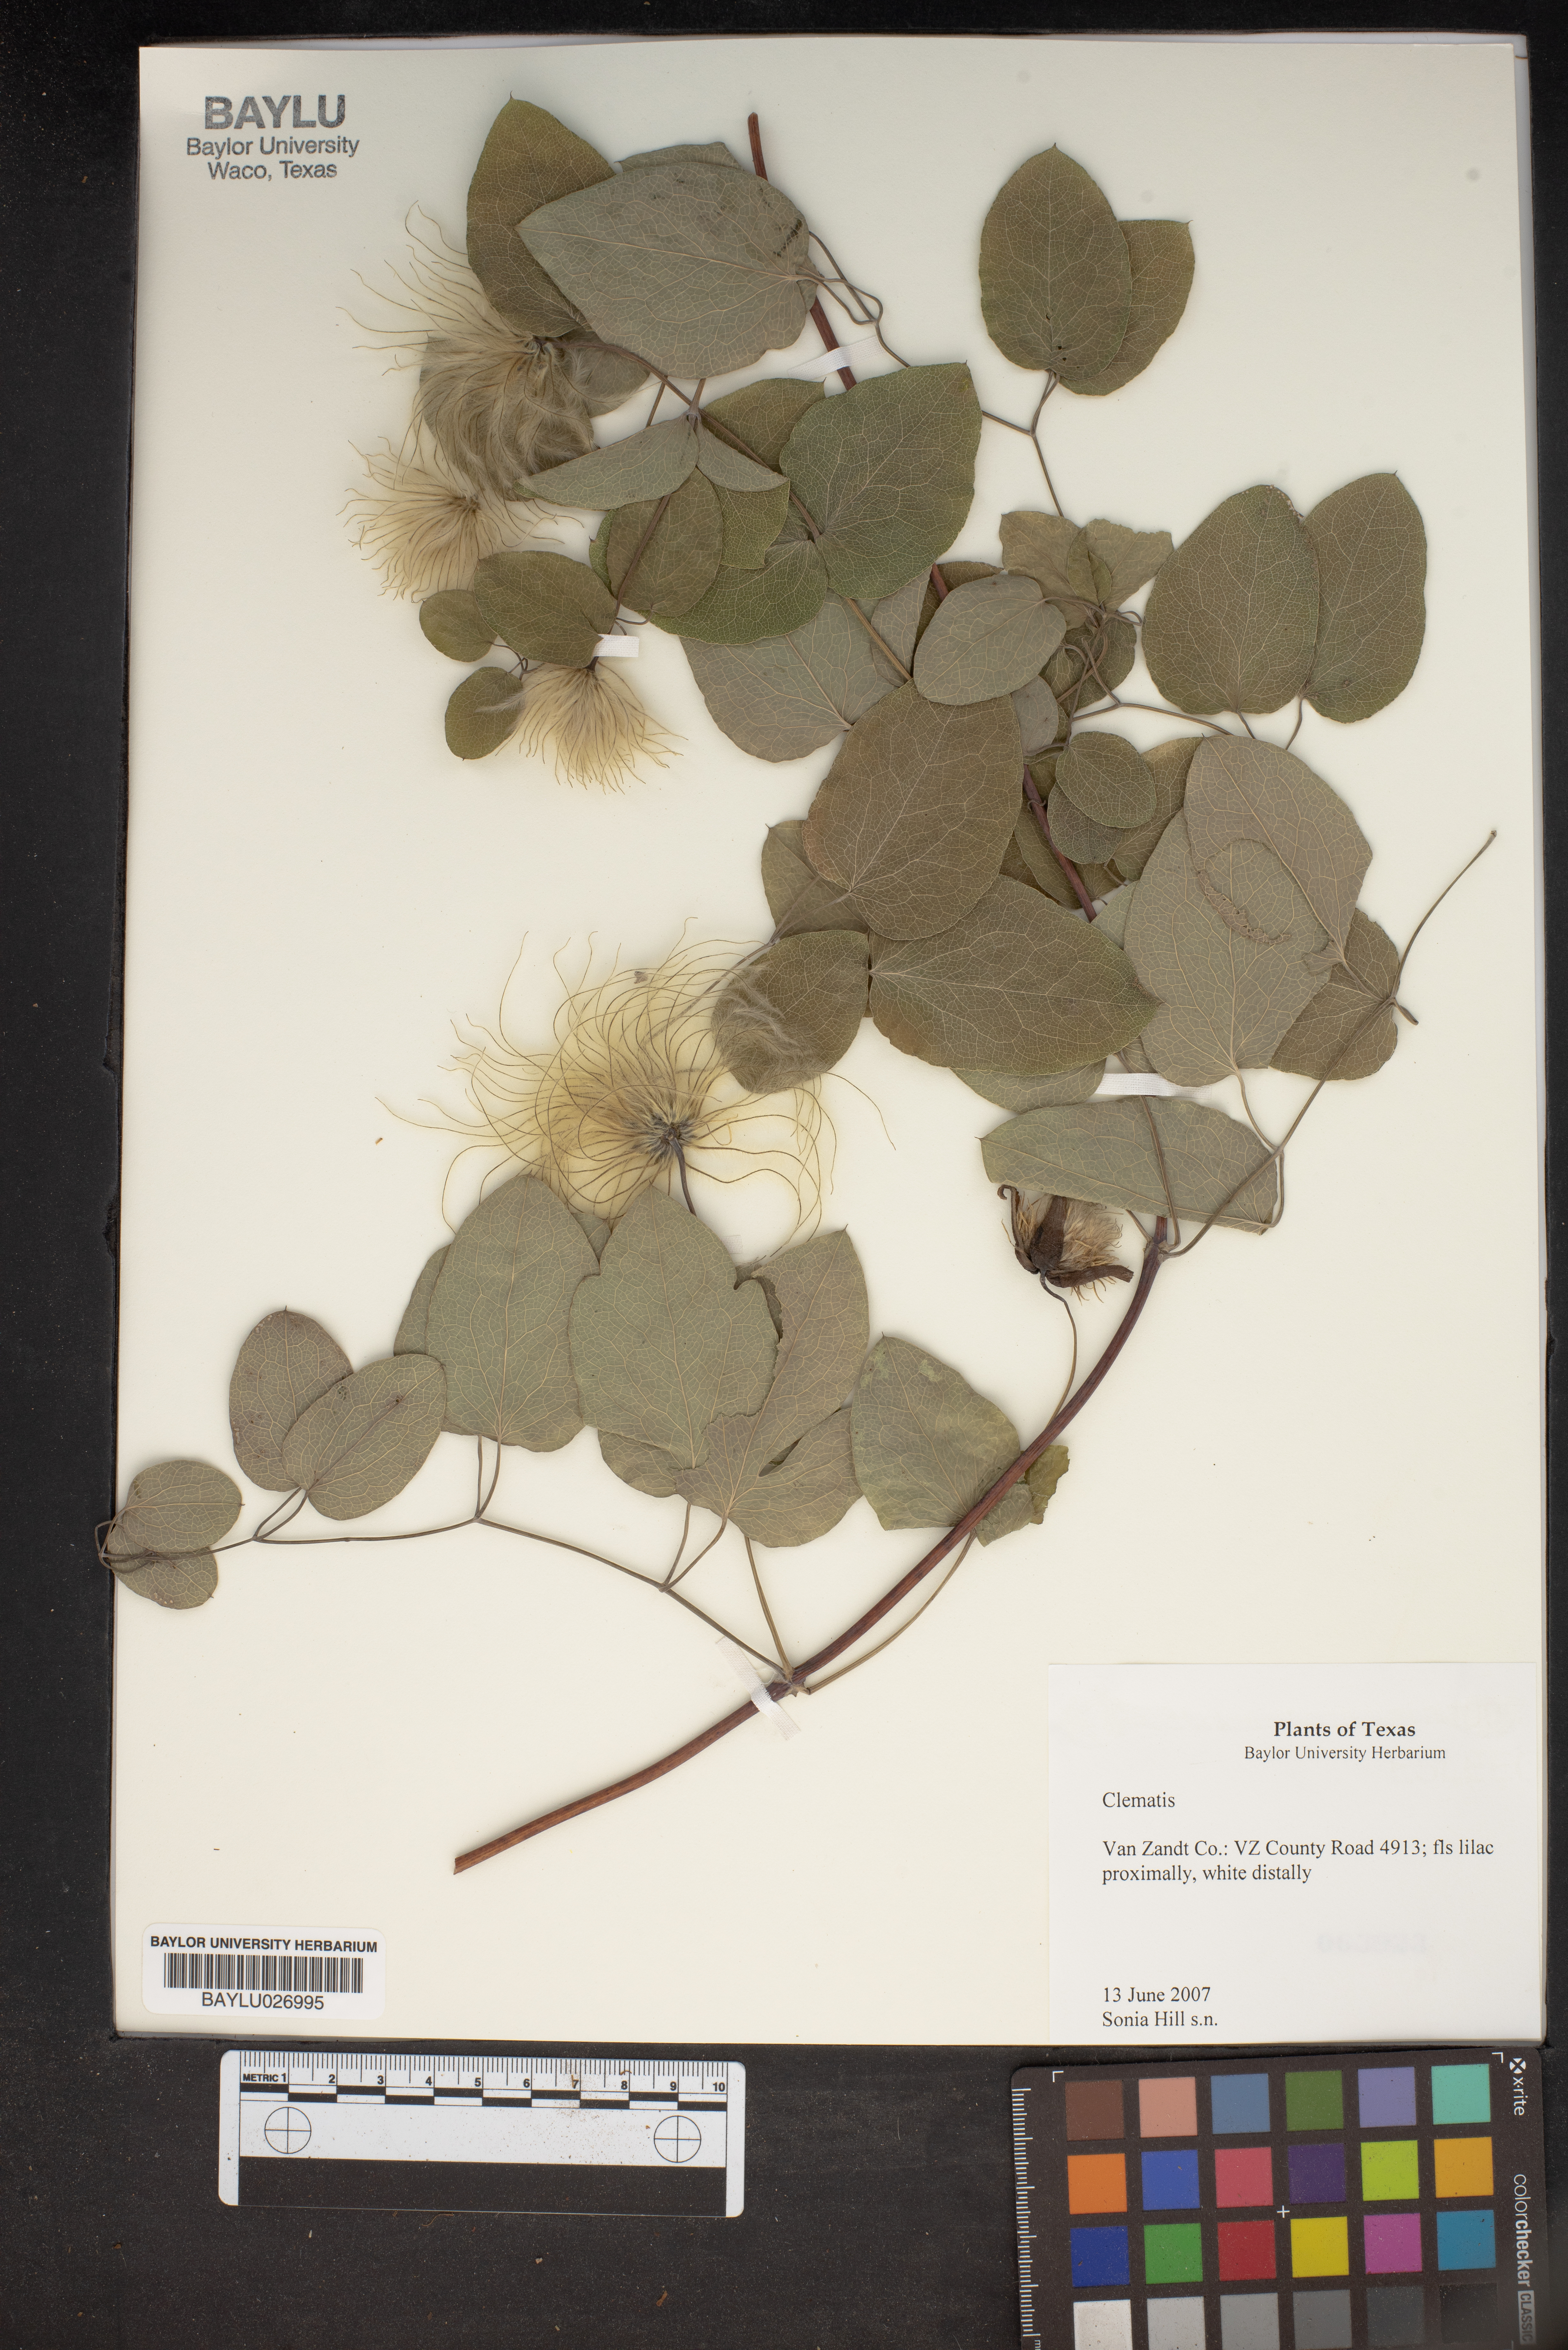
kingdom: Plantae
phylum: Tracheophyta
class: Magnoliopsida
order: Ranunculales
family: Ranunculaceae
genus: Clematis
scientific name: Clematis
